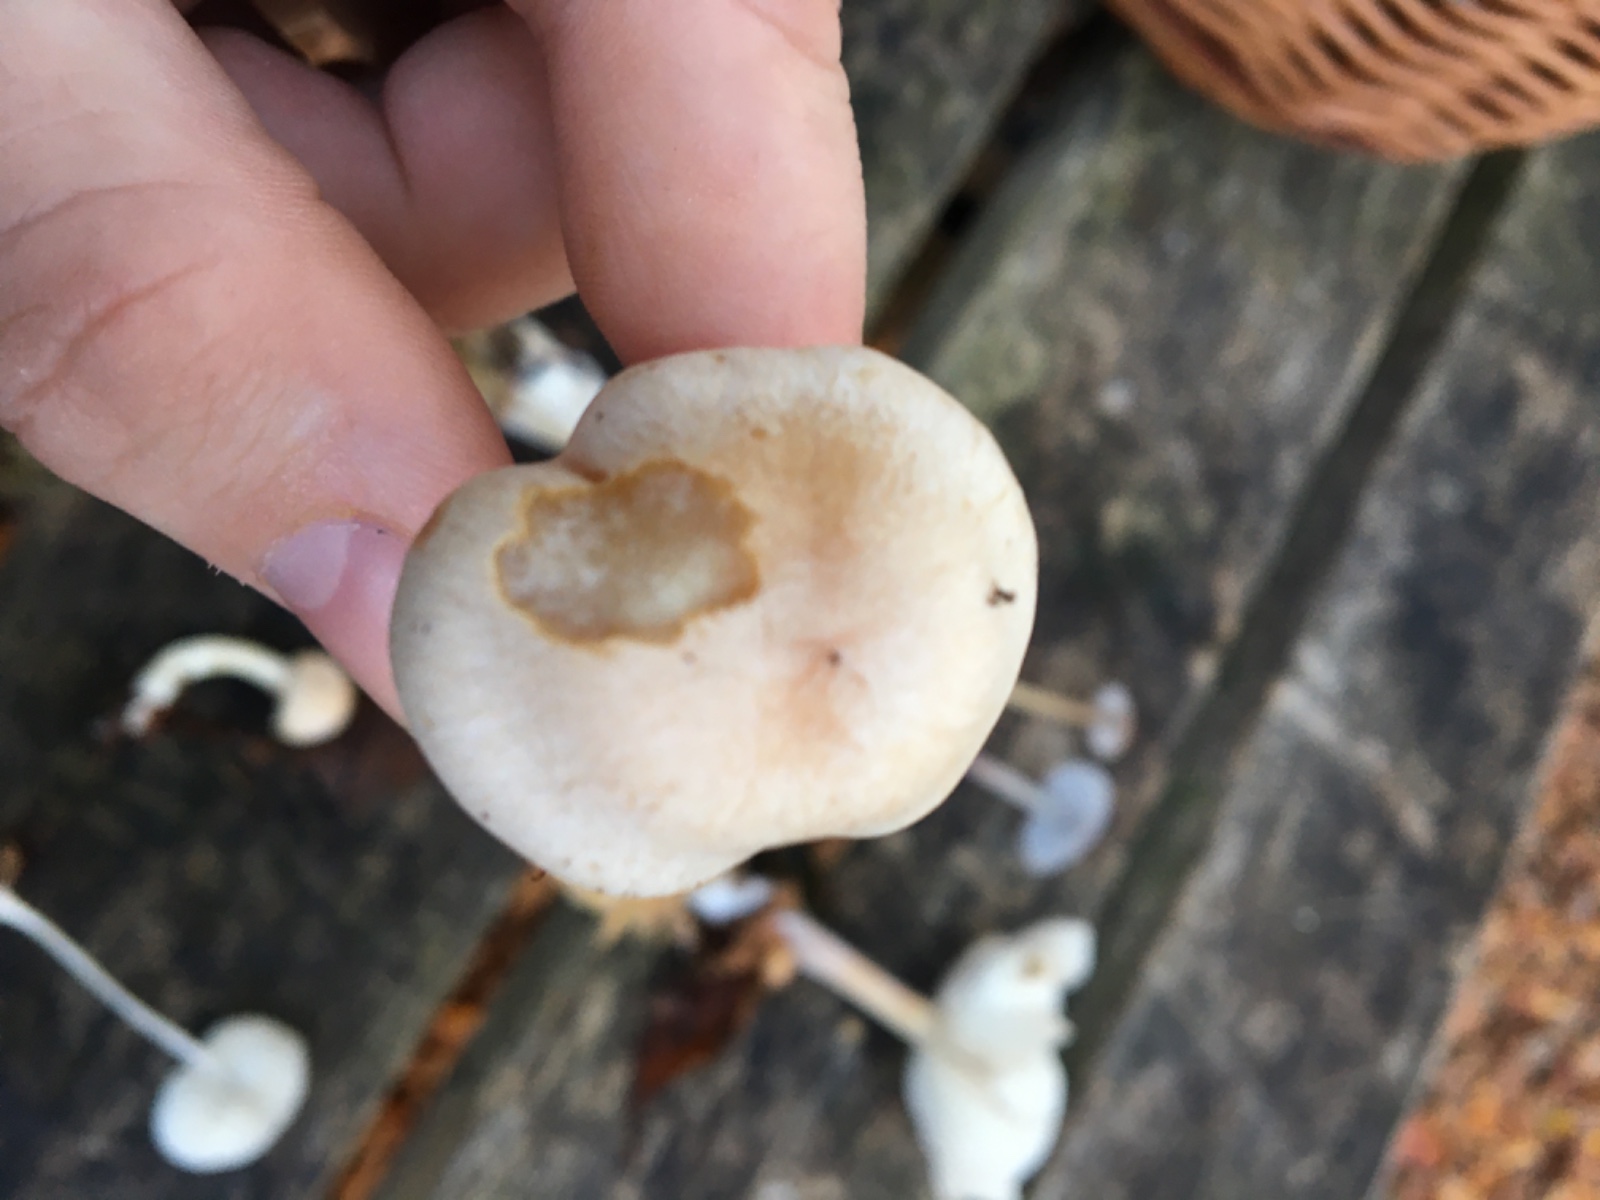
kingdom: Fungi
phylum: Basidiomycota
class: Agaricomycetes
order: Agaricales
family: Cortinariaceae
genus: Cortinarius
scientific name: Cortinarius
